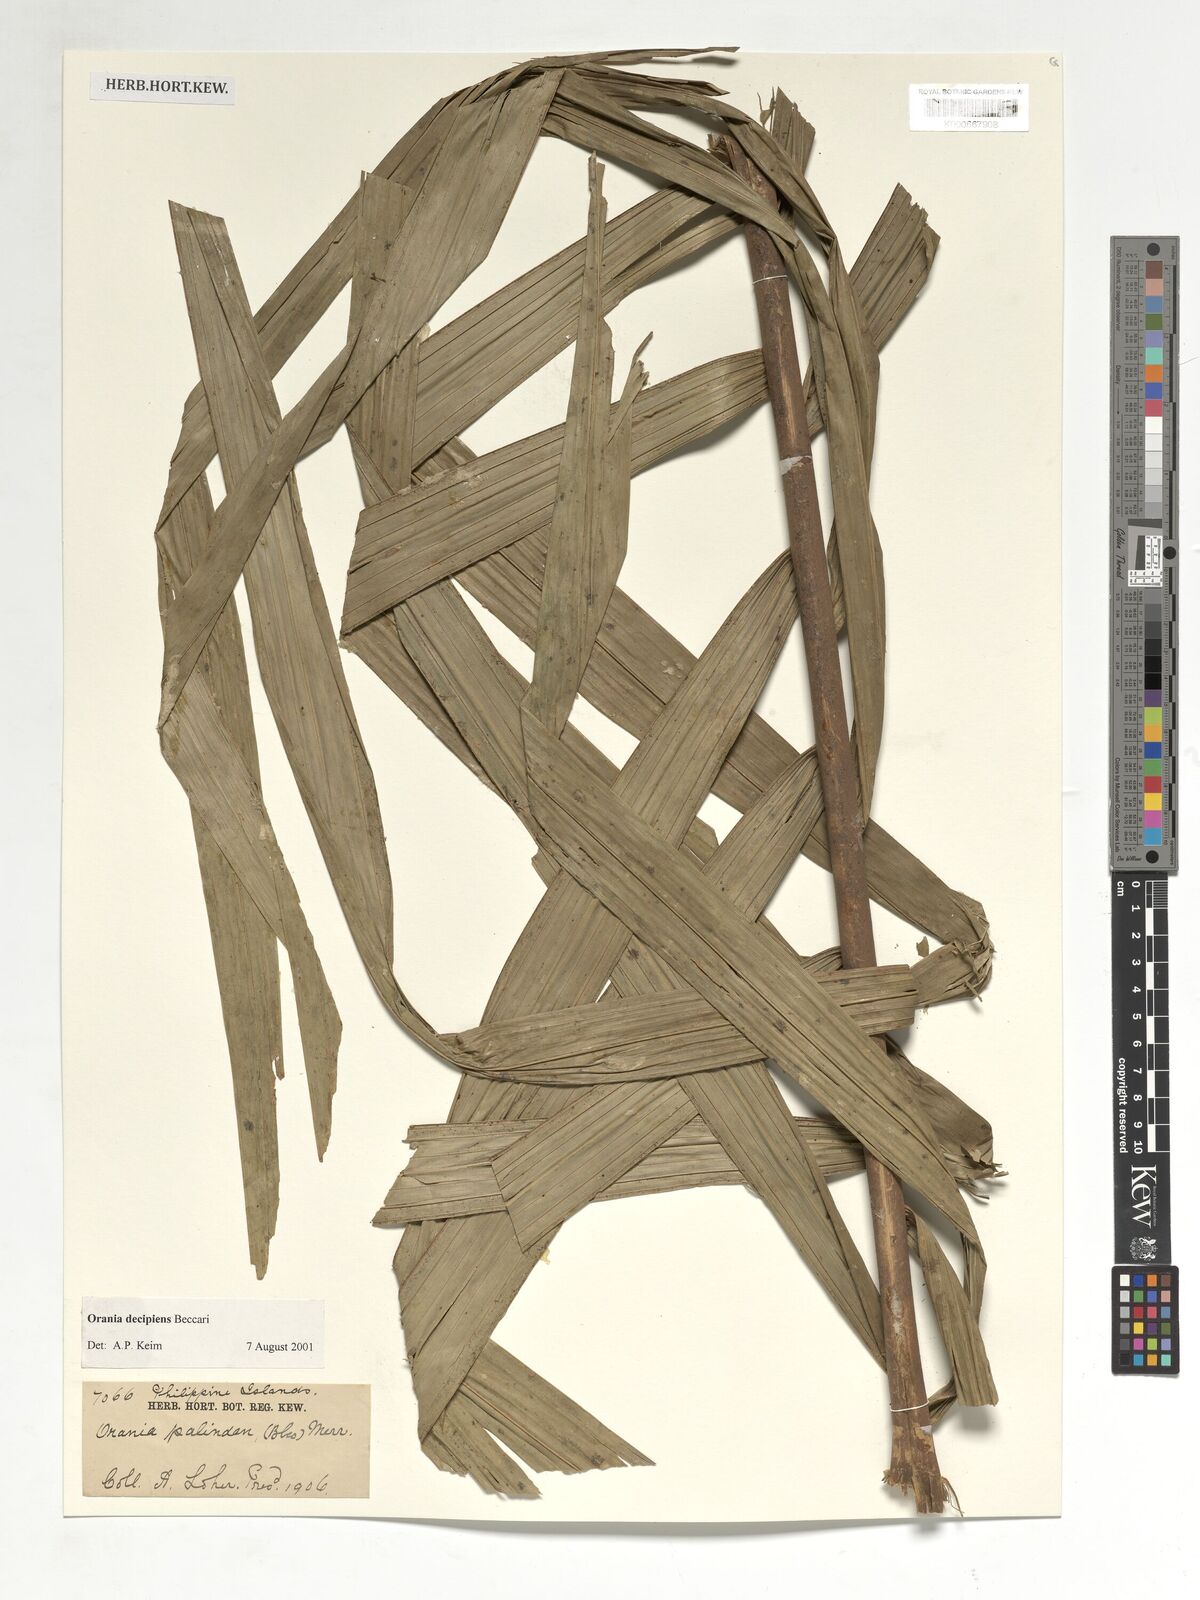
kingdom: Plantae
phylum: Tracheophyta
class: Liliopsida
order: Arecales
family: Arecaceae
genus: Orania
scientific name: Orania decipiens
